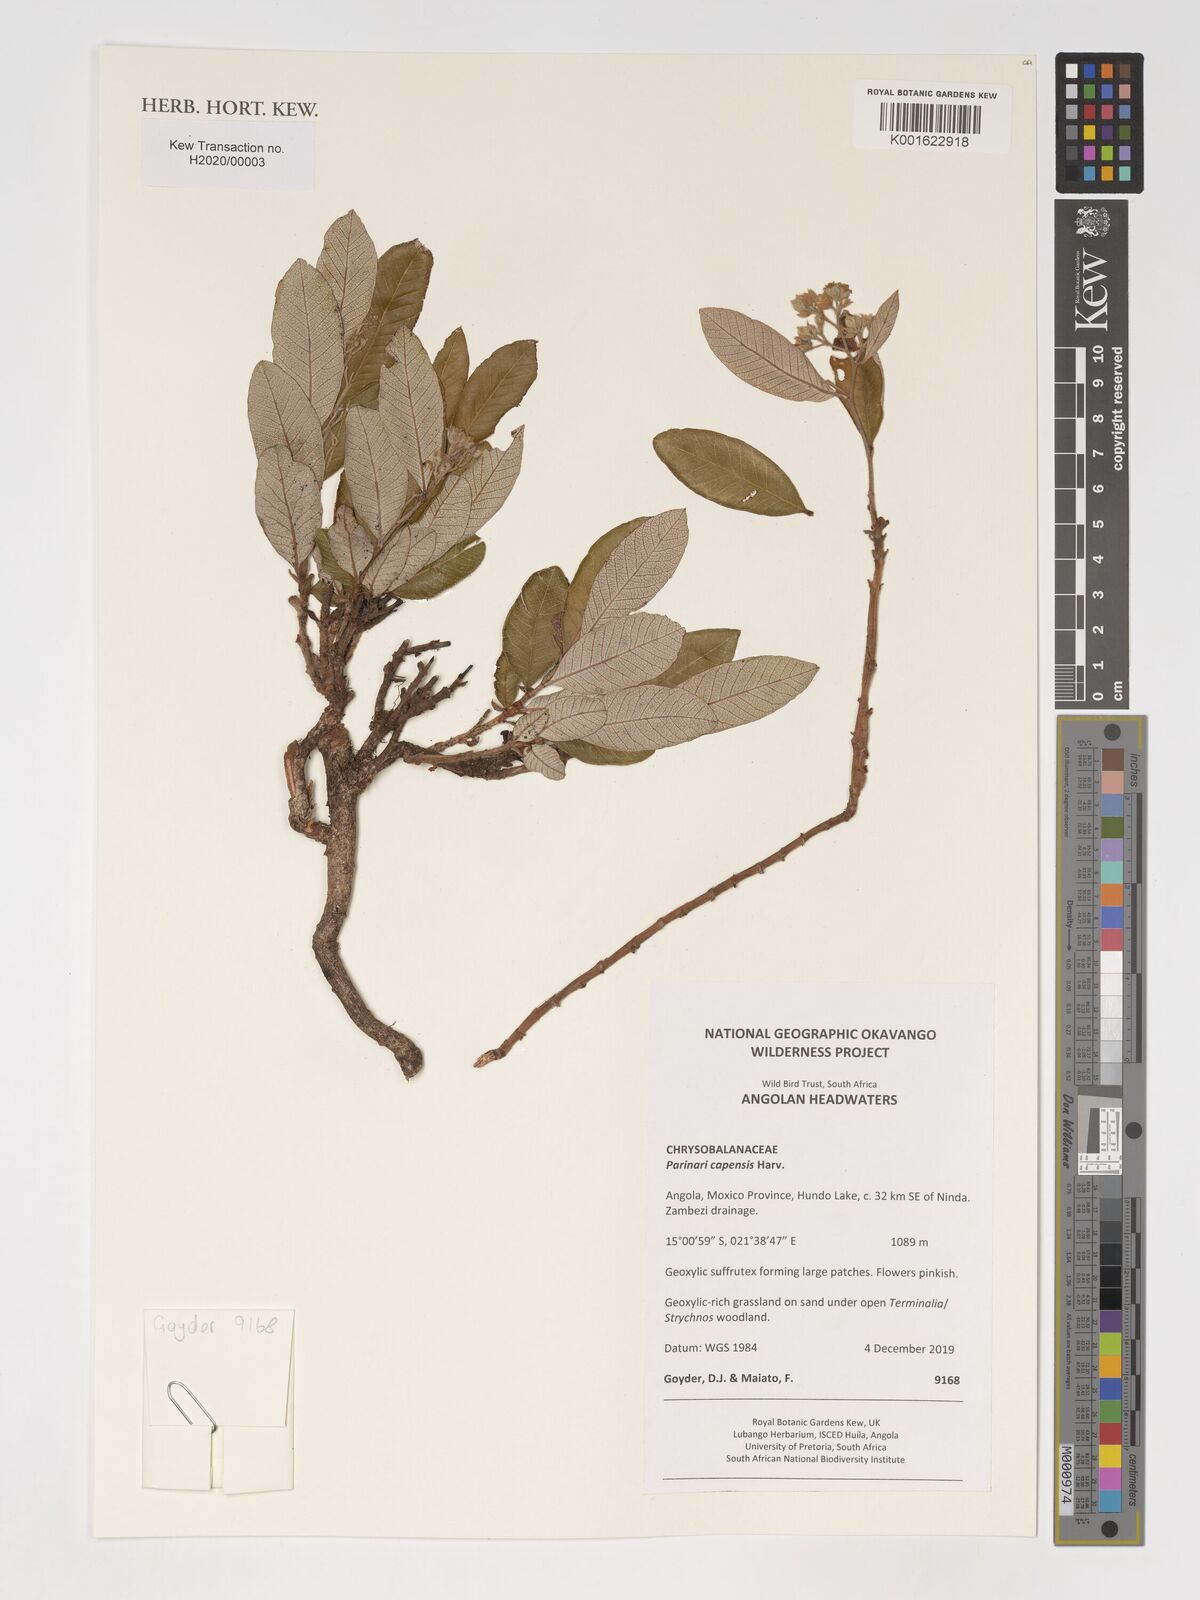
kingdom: Plantae
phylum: Tracheophyta
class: Magnoliopsida
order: Malpighiales
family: Chrysobalanaceae
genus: Parinari
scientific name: Parinari capensis
